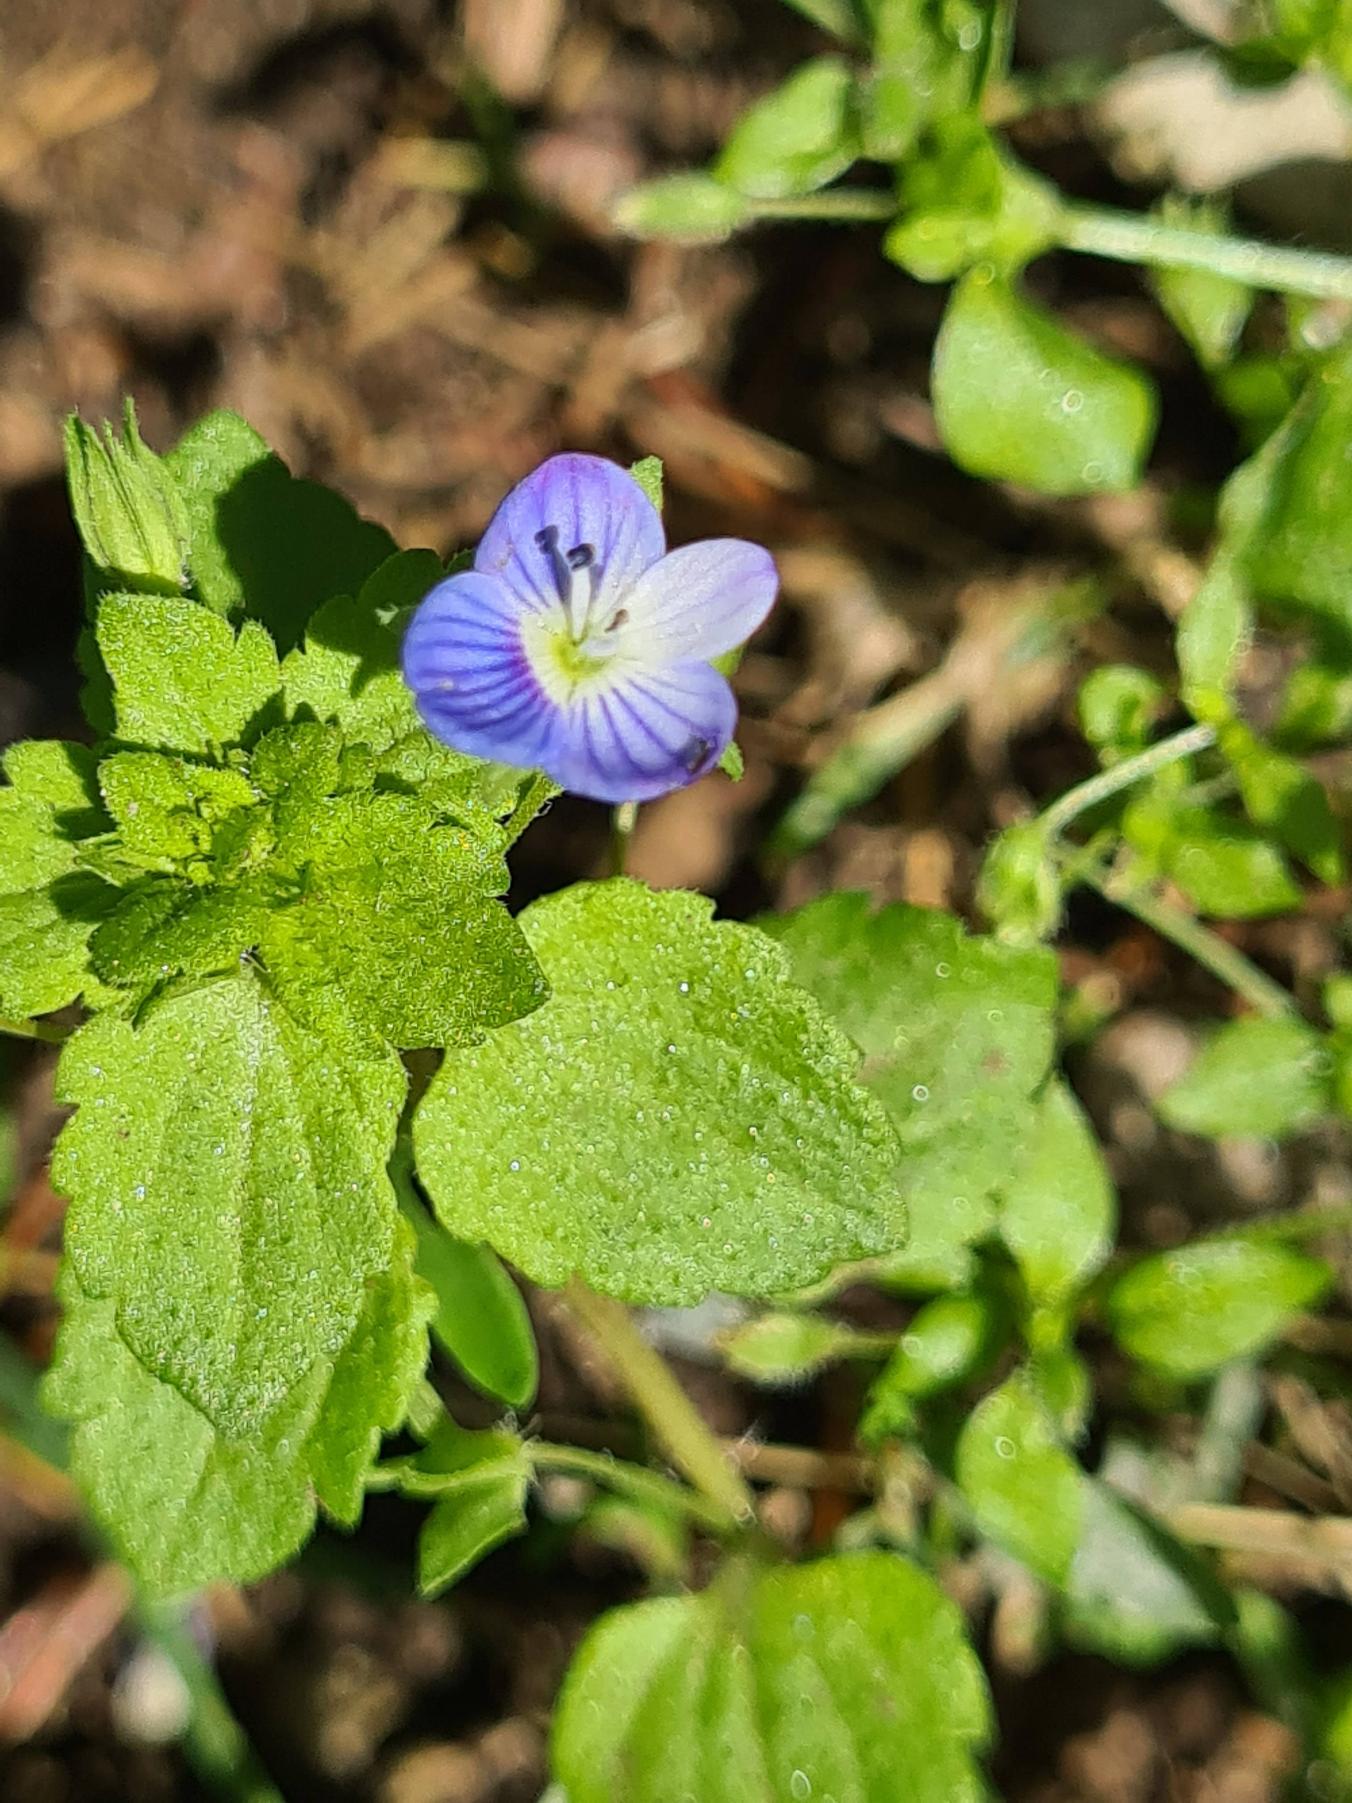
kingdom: Plantae
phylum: Tracheophyta
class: Magnoliopsida
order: Lamiales
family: Plantaginaceae
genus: Veronica
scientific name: Veronica persica
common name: Storkronet ærenpris
